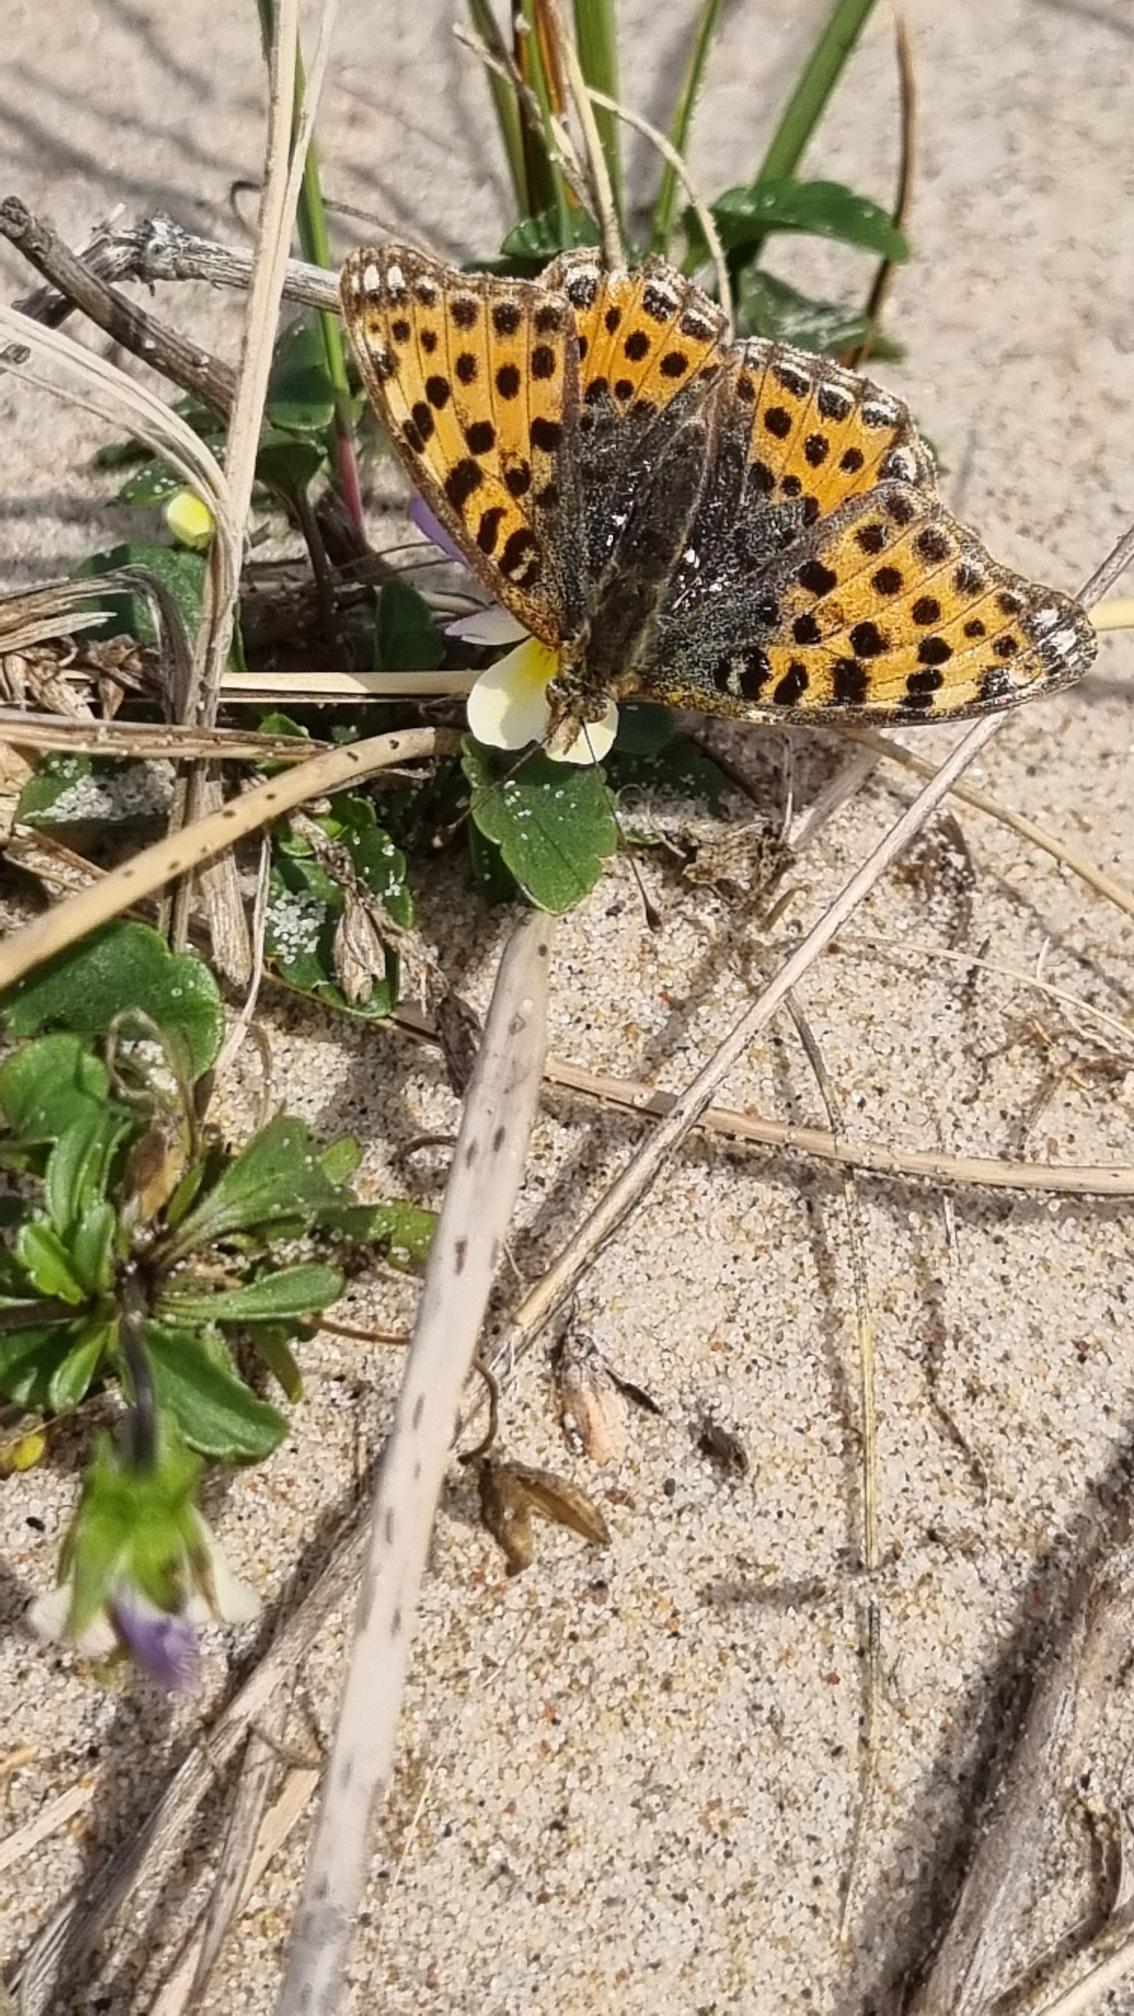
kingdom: Animalia
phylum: Arthropoda
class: Insecta
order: Lepidoptera
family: Nymphalidae
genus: Issoria
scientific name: Issoria lathonia
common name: Storplettet perlemorsommerfugl
